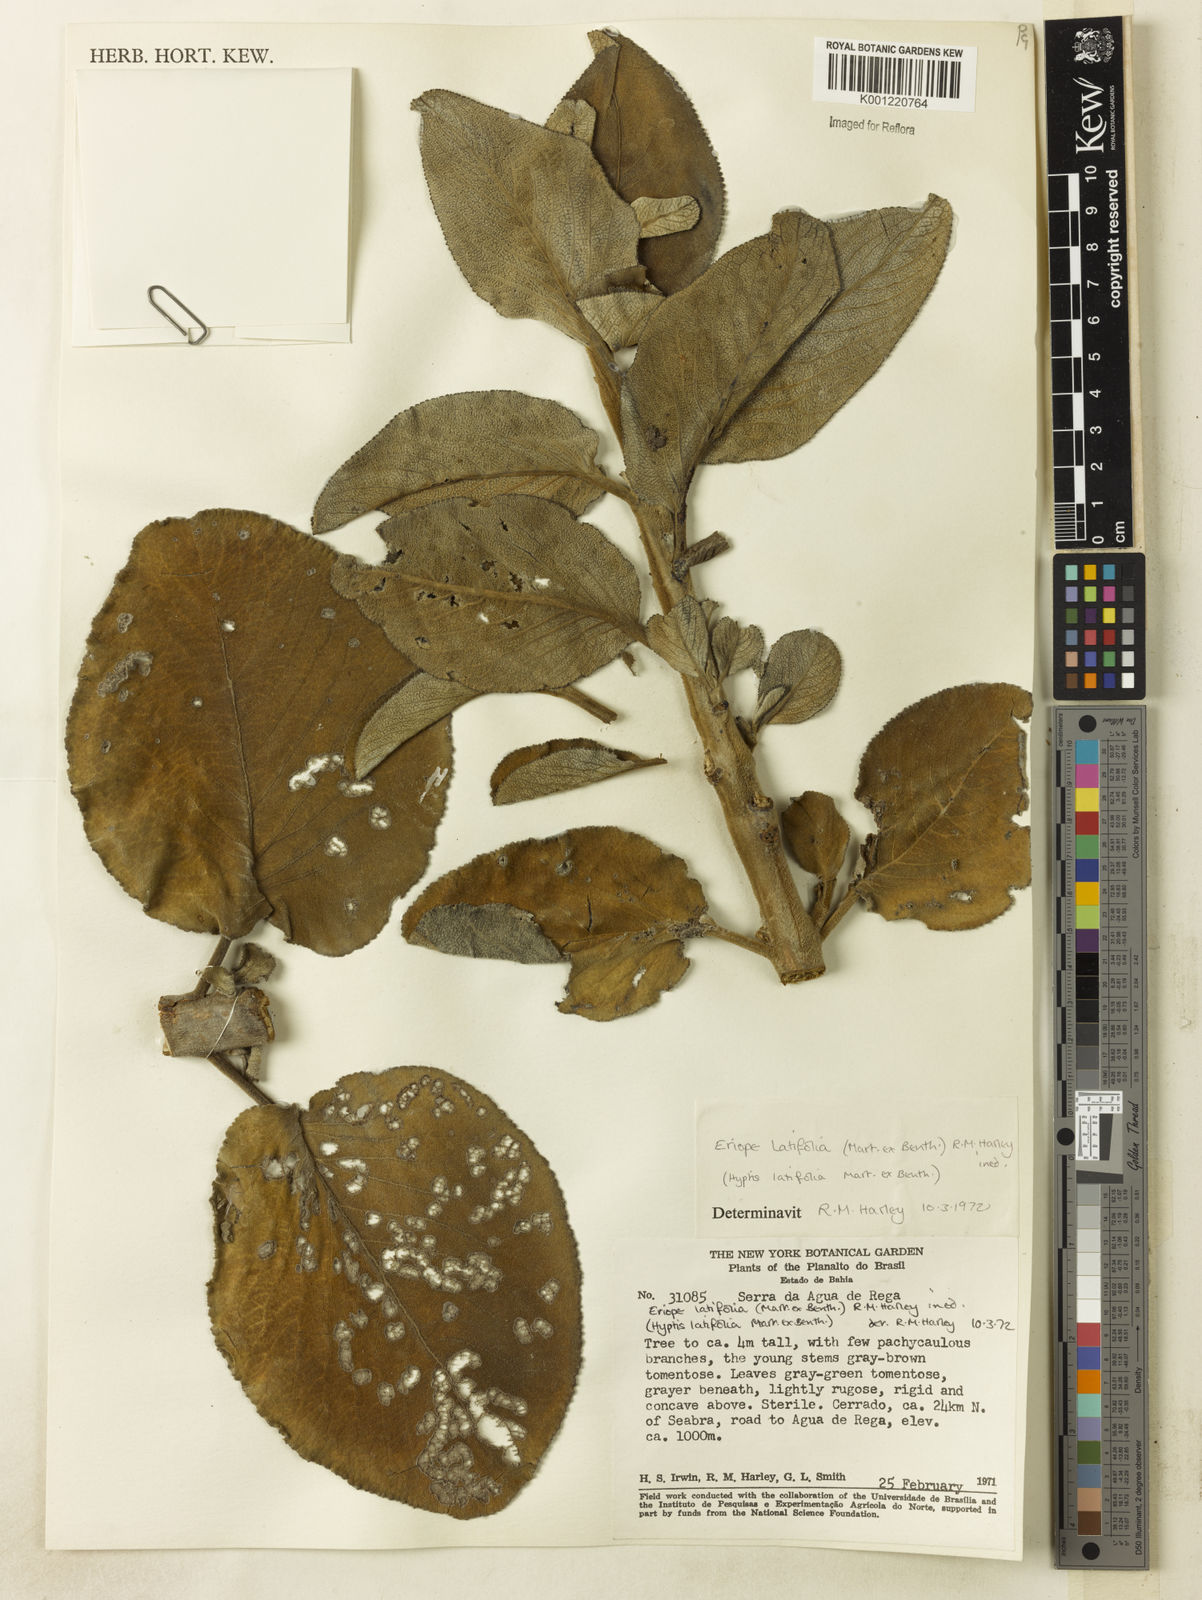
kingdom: Plantae
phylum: Tracheophyta
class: Magnoliopsida
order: Lamiales
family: Lamiaceae
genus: Eriope
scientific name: Eriope latifolia
